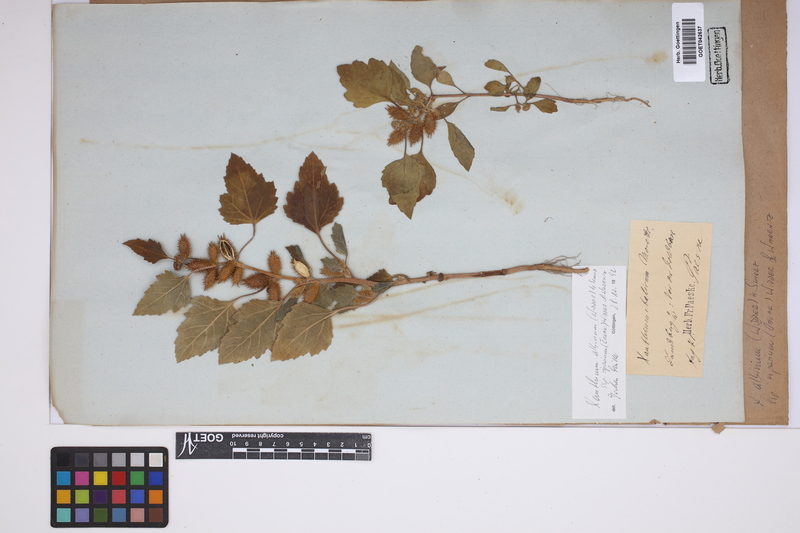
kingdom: Plantae
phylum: Tracheophyta
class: Magnoliopsida
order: Asterales
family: Asteraceae
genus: Xanthium
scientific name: Xanthium orientale
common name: Californian burr
